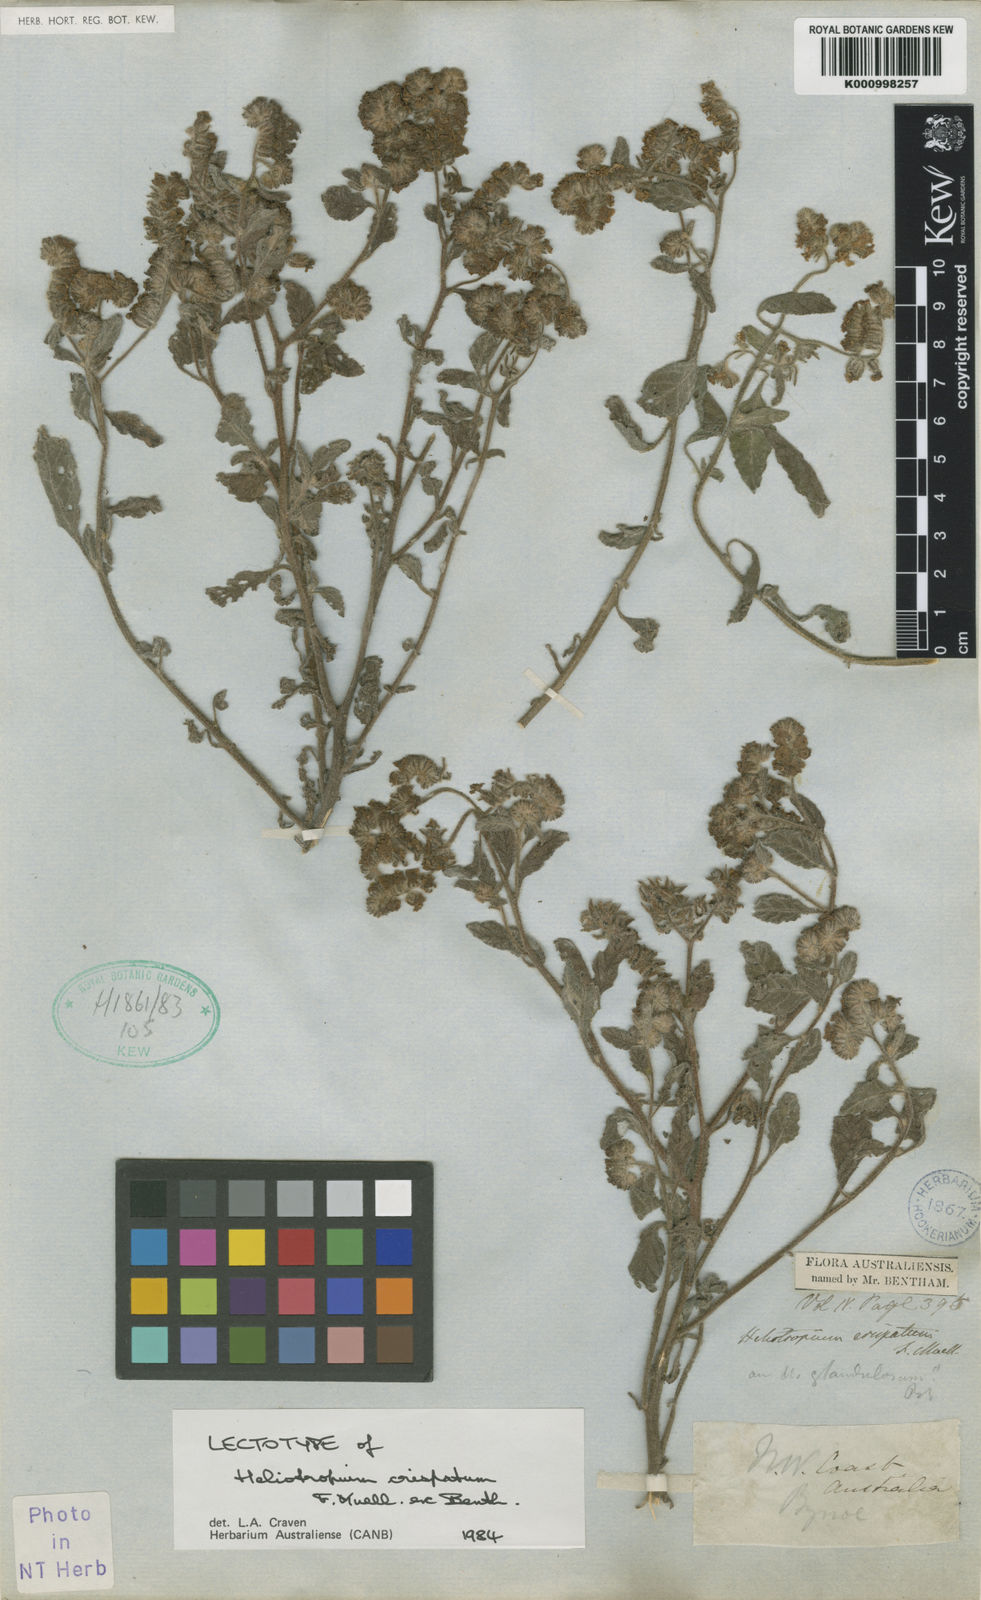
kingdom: Plantae
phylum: Tracheophyta
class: Magnoliopsida
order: Boraginales
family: Heliotropiaceae
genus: Heliotropium
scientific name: Heliotropium crispatum
